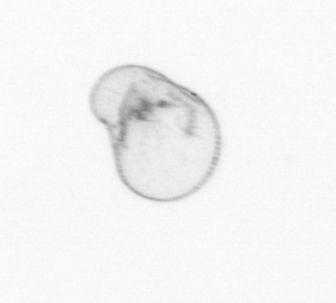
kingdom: Chromista
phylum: Myzozoa
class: Dinophyceae
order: Noctilucales
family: Noctilucaceae
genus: Noctiluca
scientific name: Noctiluca scintillans
